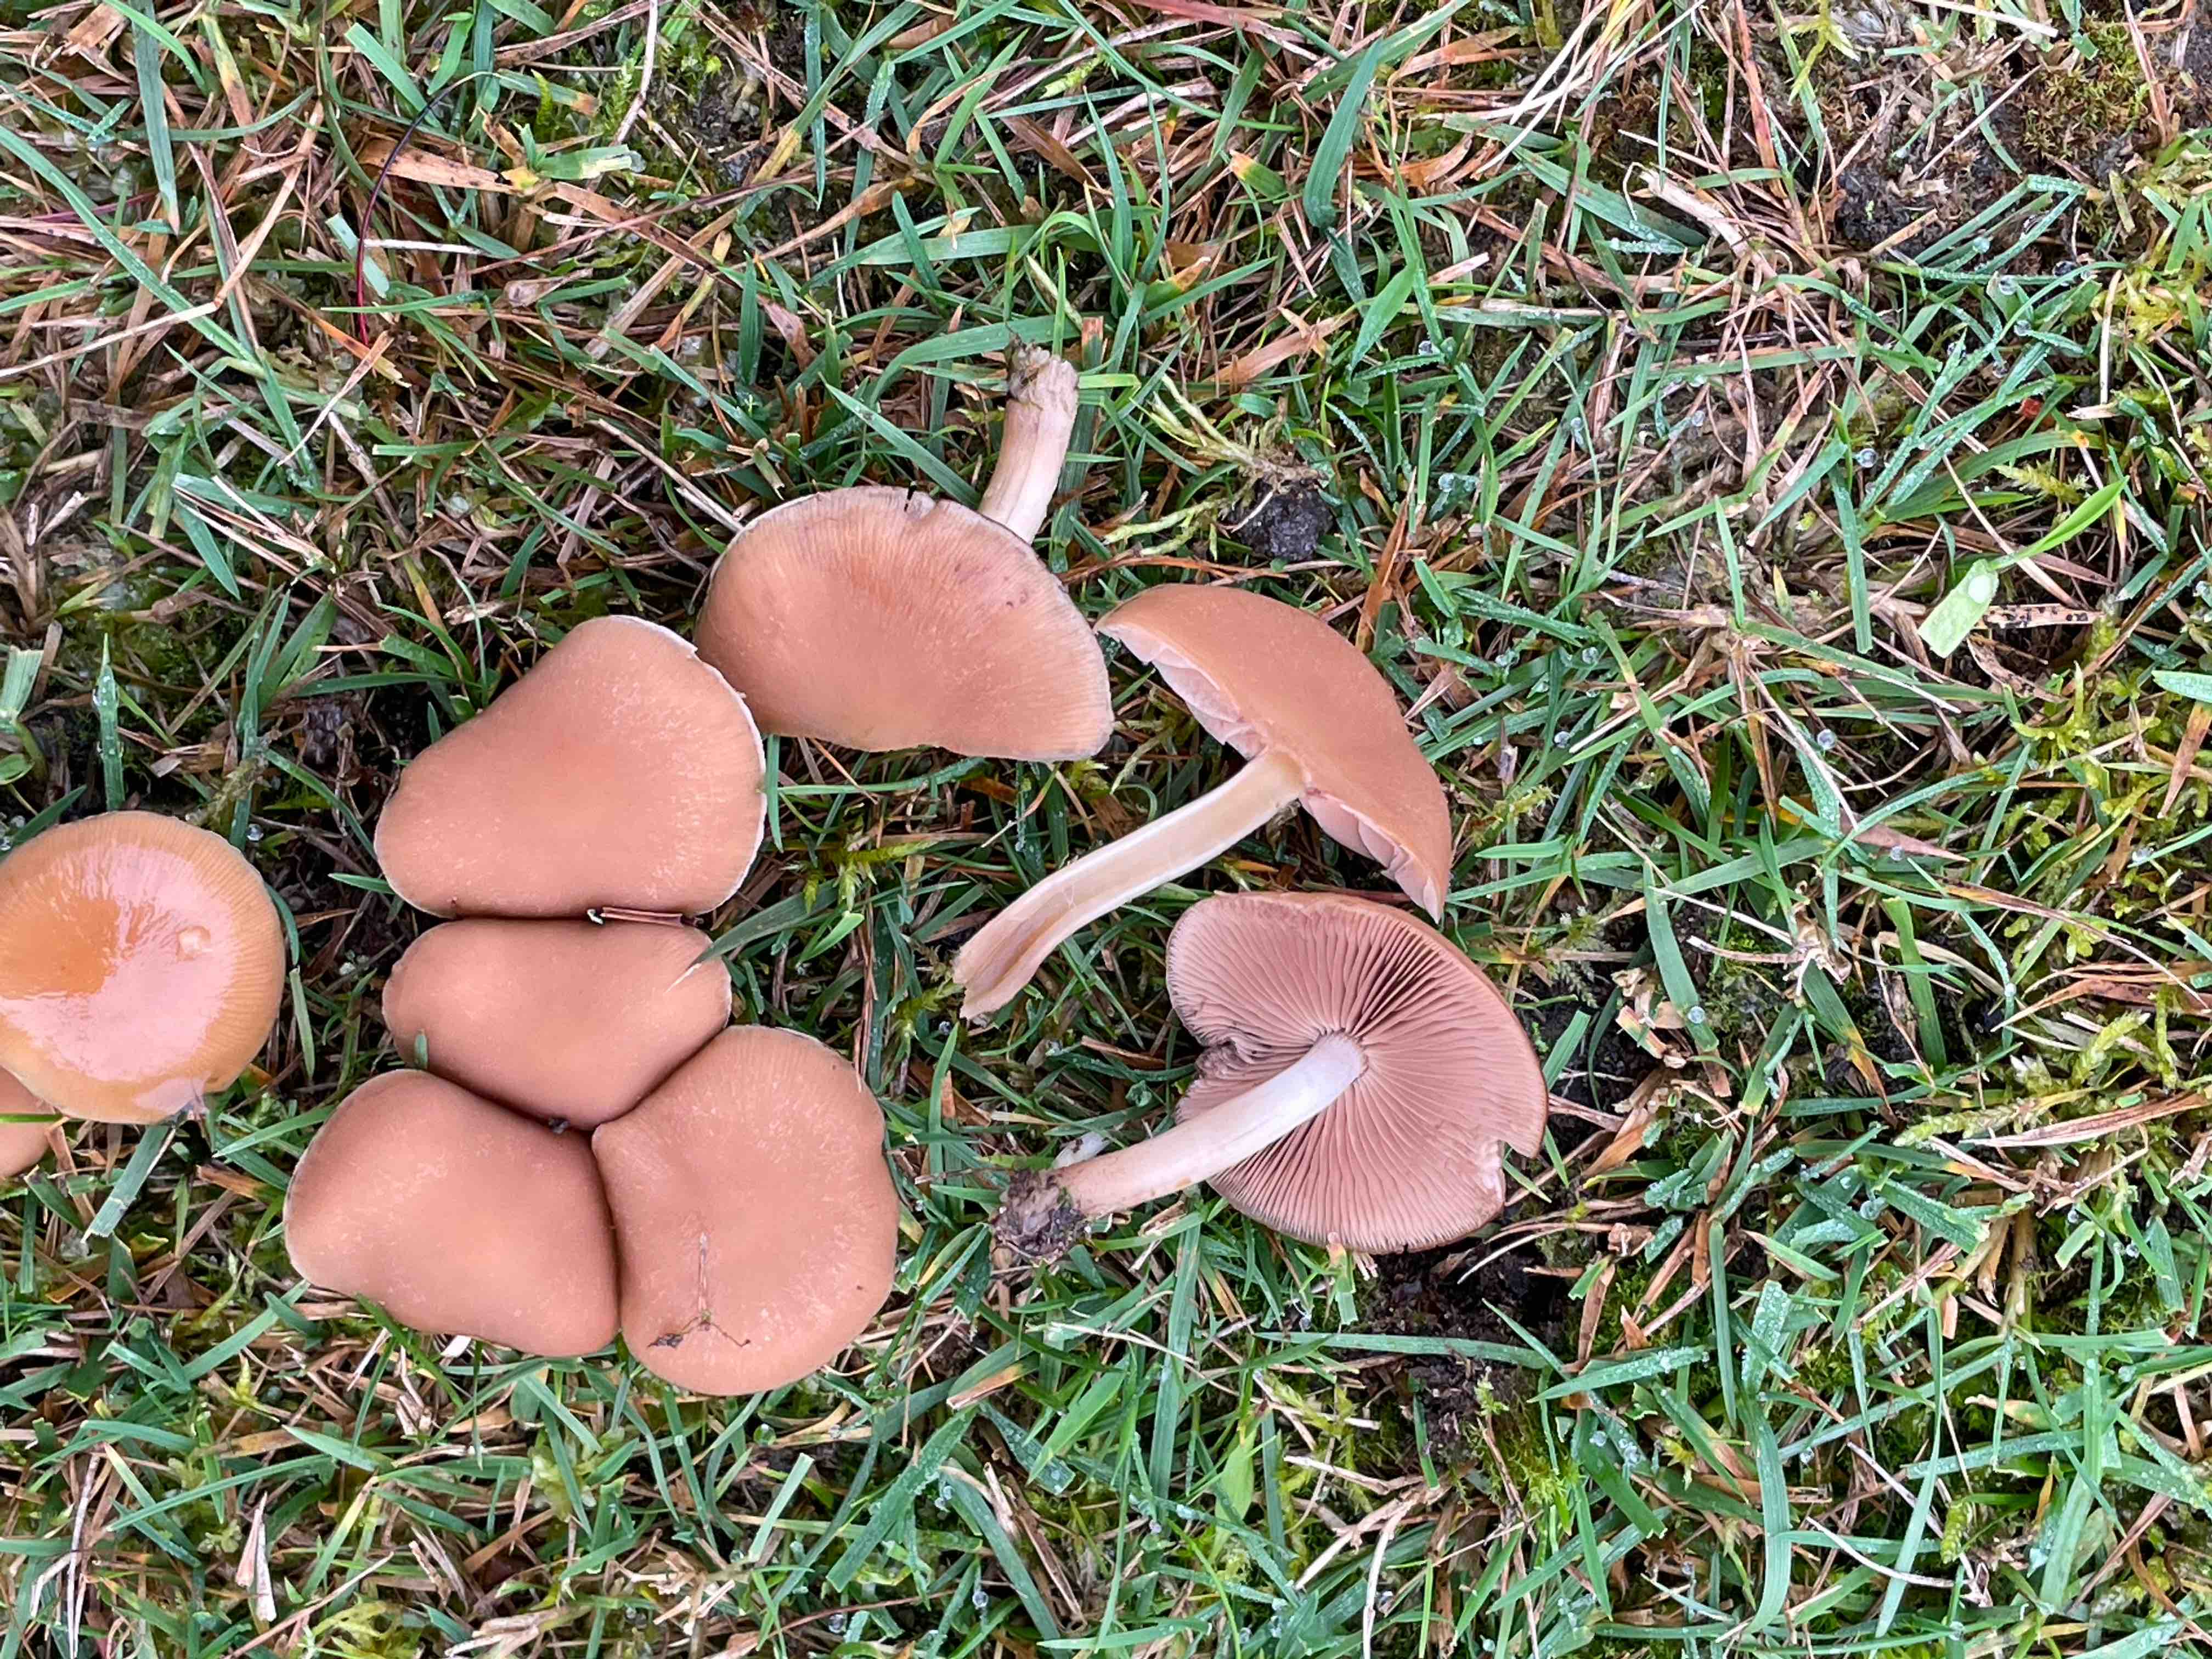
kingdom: Fungi
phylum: Basidiomycota
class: Agaricomycetes
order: Agaricales
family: Psathyrellaceae
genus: Psathyrella
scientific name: Psathyrella
